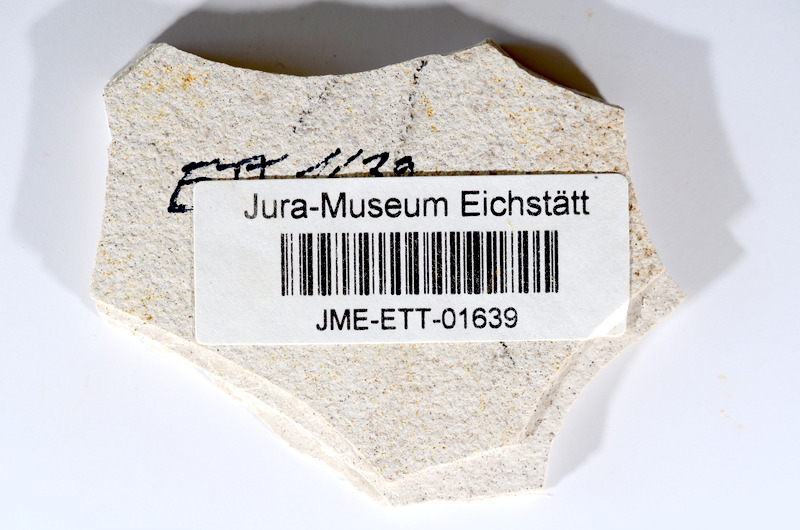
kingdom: Animalia
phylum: Chordata
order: Salmoniformes
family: Orthogonikleithridae
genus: Orthogonikleithrus
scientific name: Orthogonikleithrus hoelli
